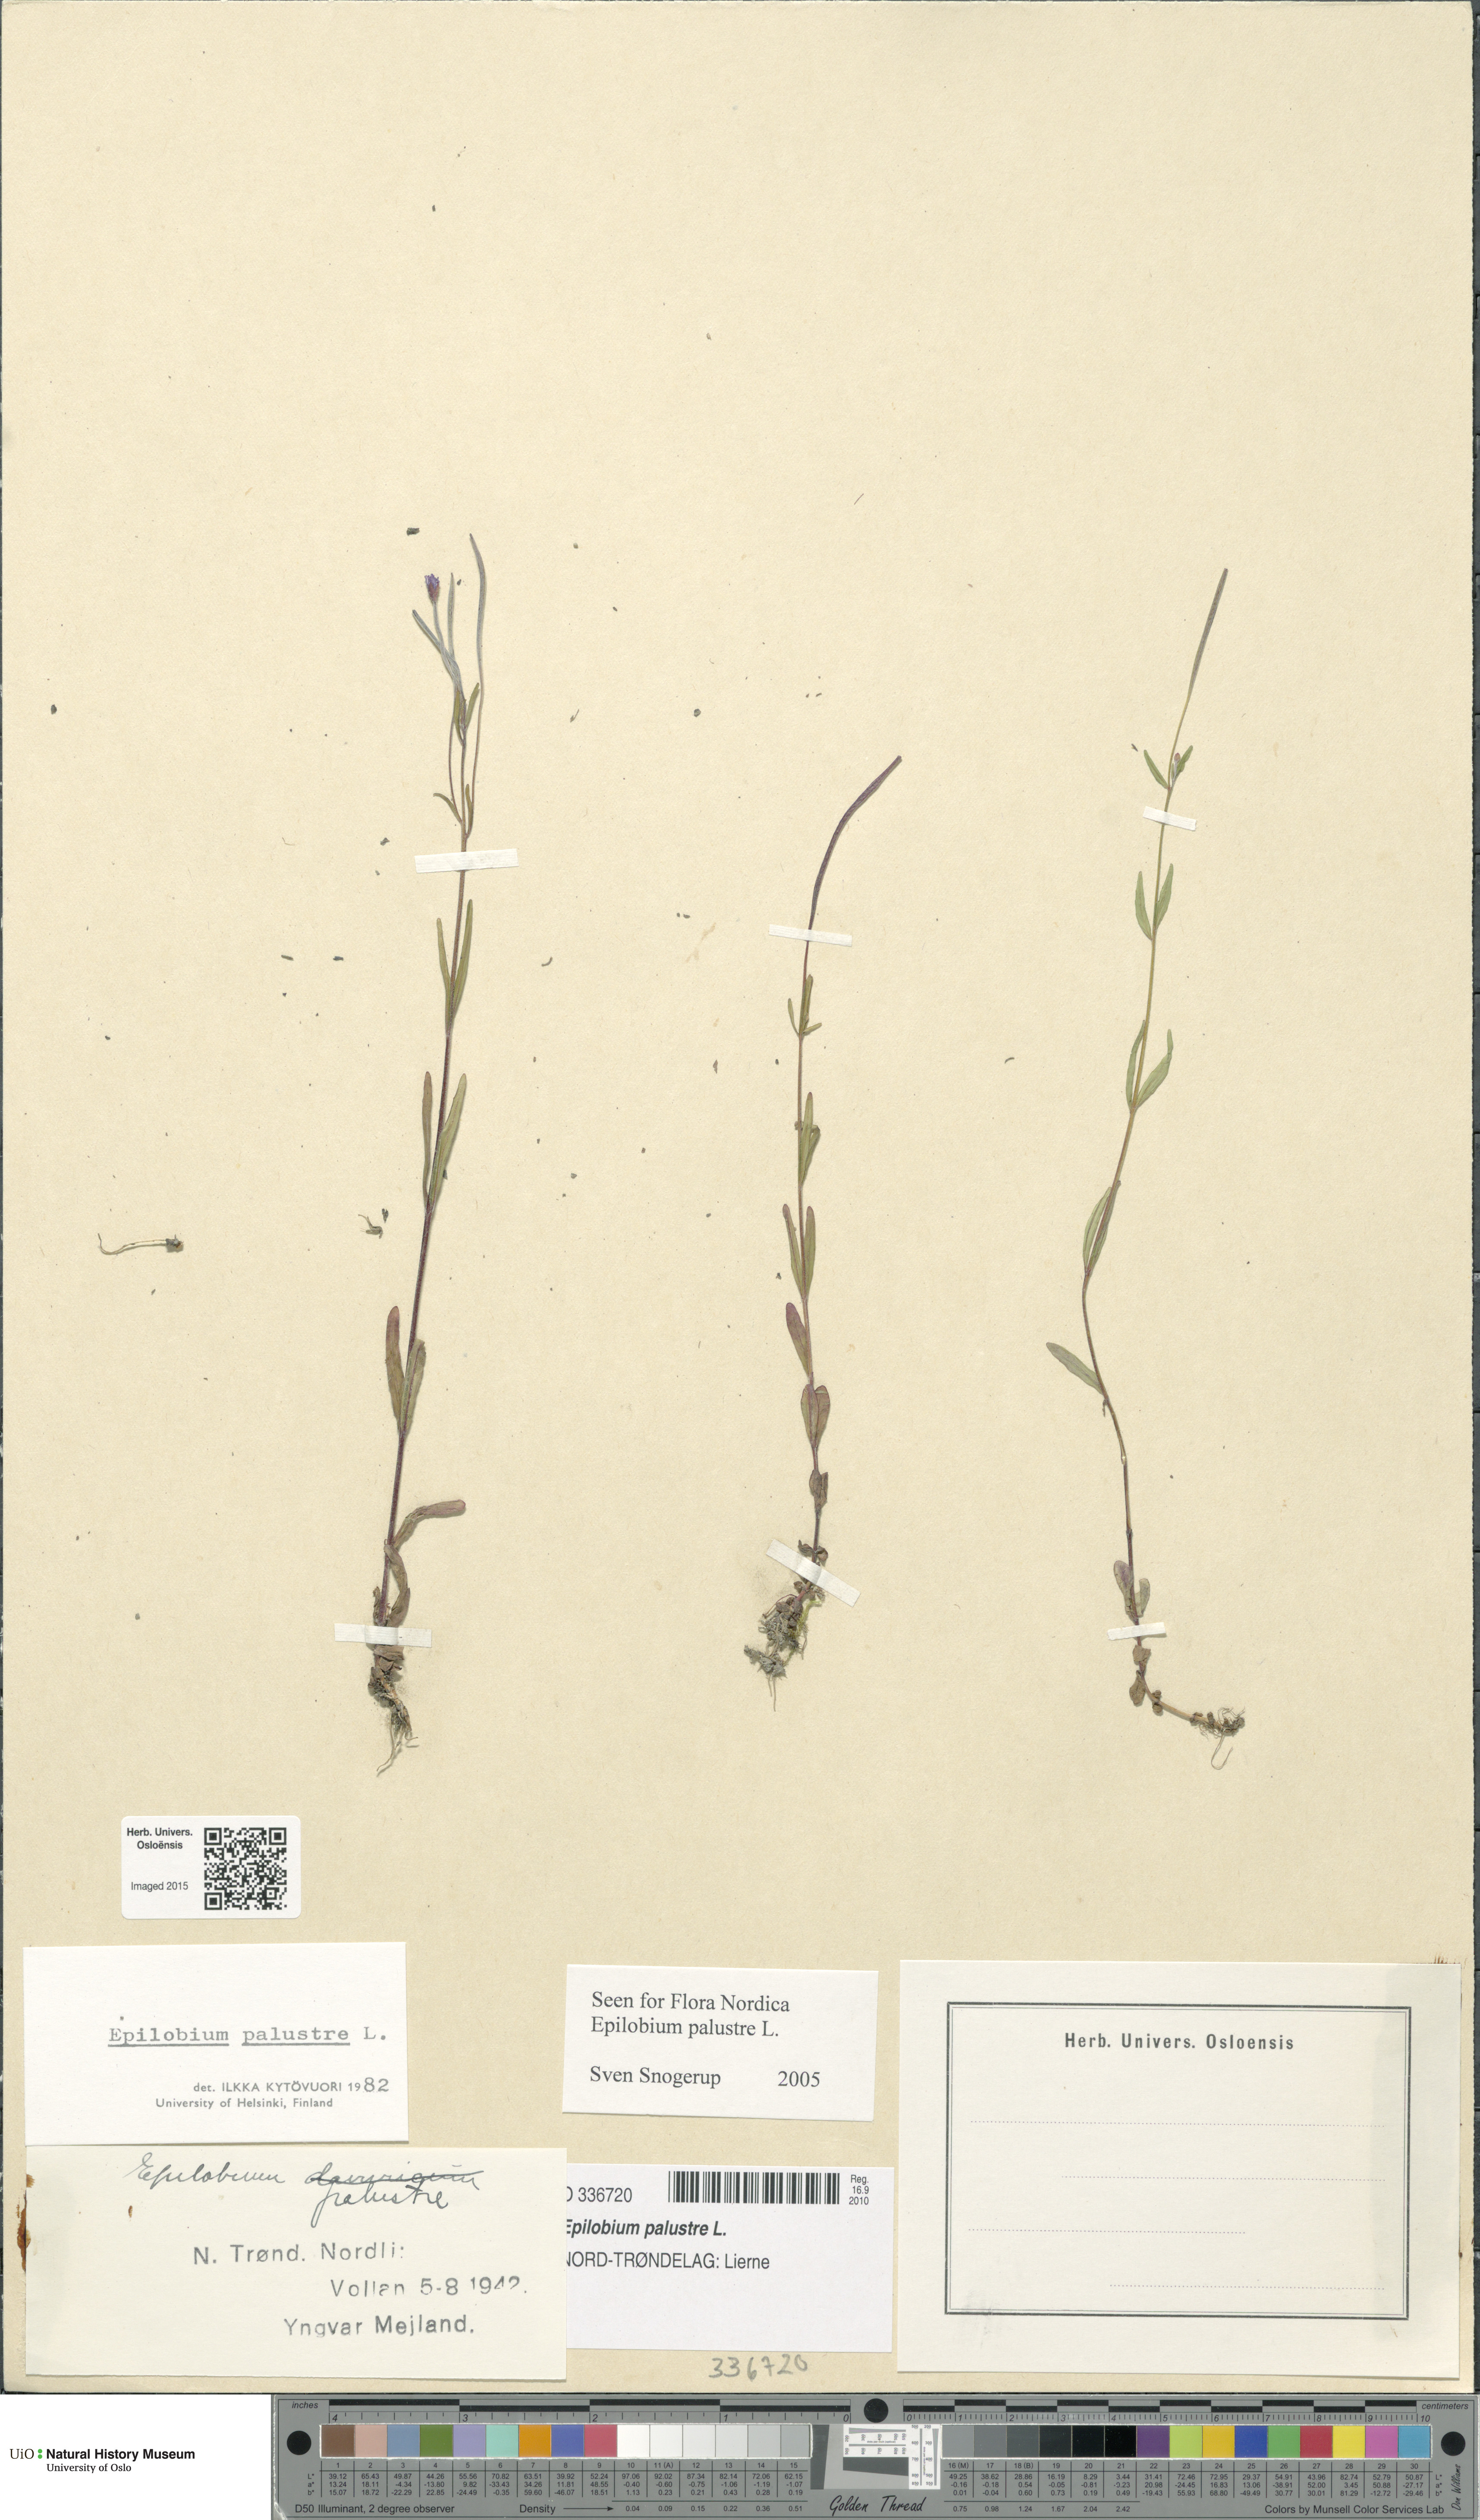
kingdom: Plantae
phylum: Tracheophyta
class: Magnoliopsida
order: Myrtales
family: Onagraceae
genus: Epilobium
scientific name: Epilobium palustre
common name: Marsh willowherb
